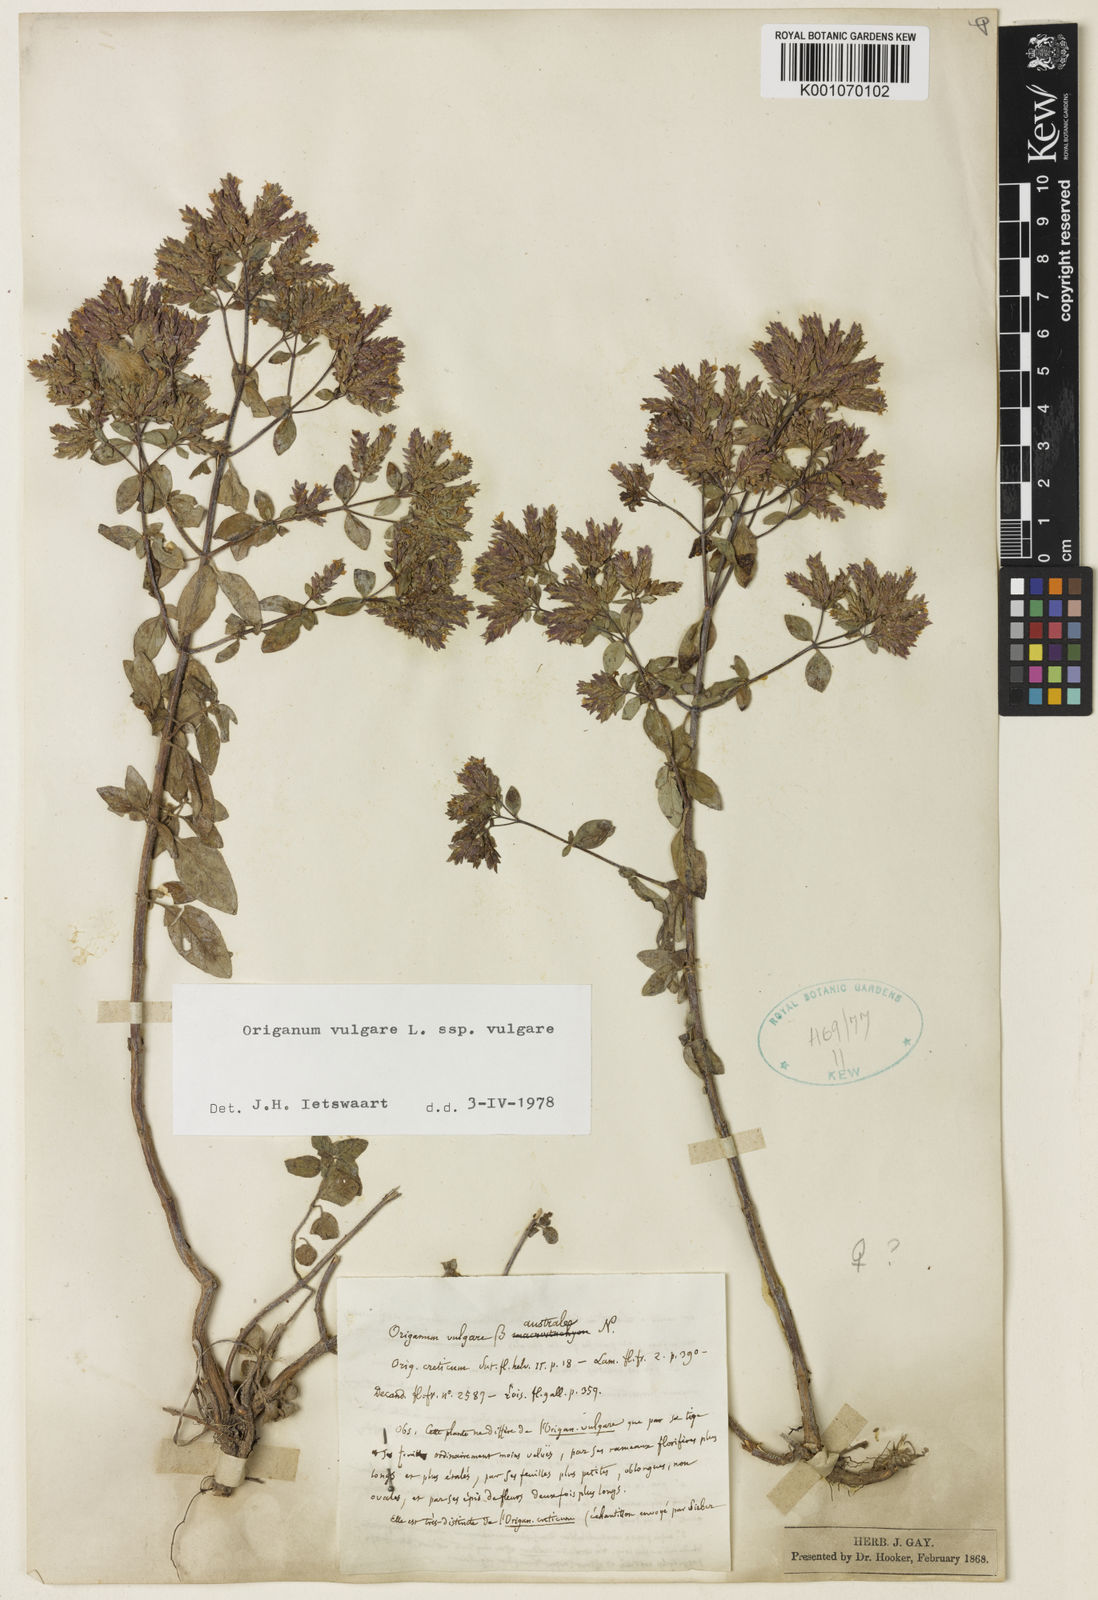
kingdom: Plantae
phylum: Tracheophyta
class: Magnoliopsida
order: Lamiales
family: Lamiaceae
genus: Origanum
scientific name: Origanum vulgare
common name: Wild marjoram
